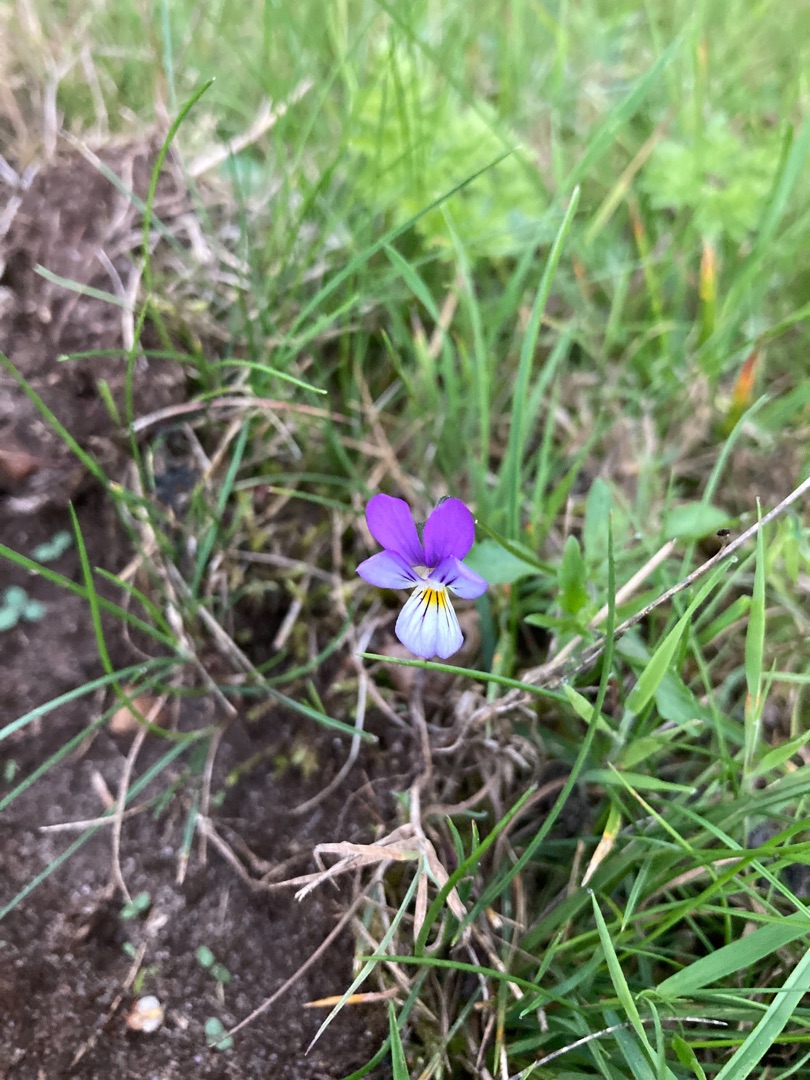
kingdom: Plantae
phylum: Tracheophyta
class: Magnoliopsida
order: Malpighiales
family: Violaceae
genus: Viola
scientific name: Viola tricolor
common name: Stedmoderblomst
